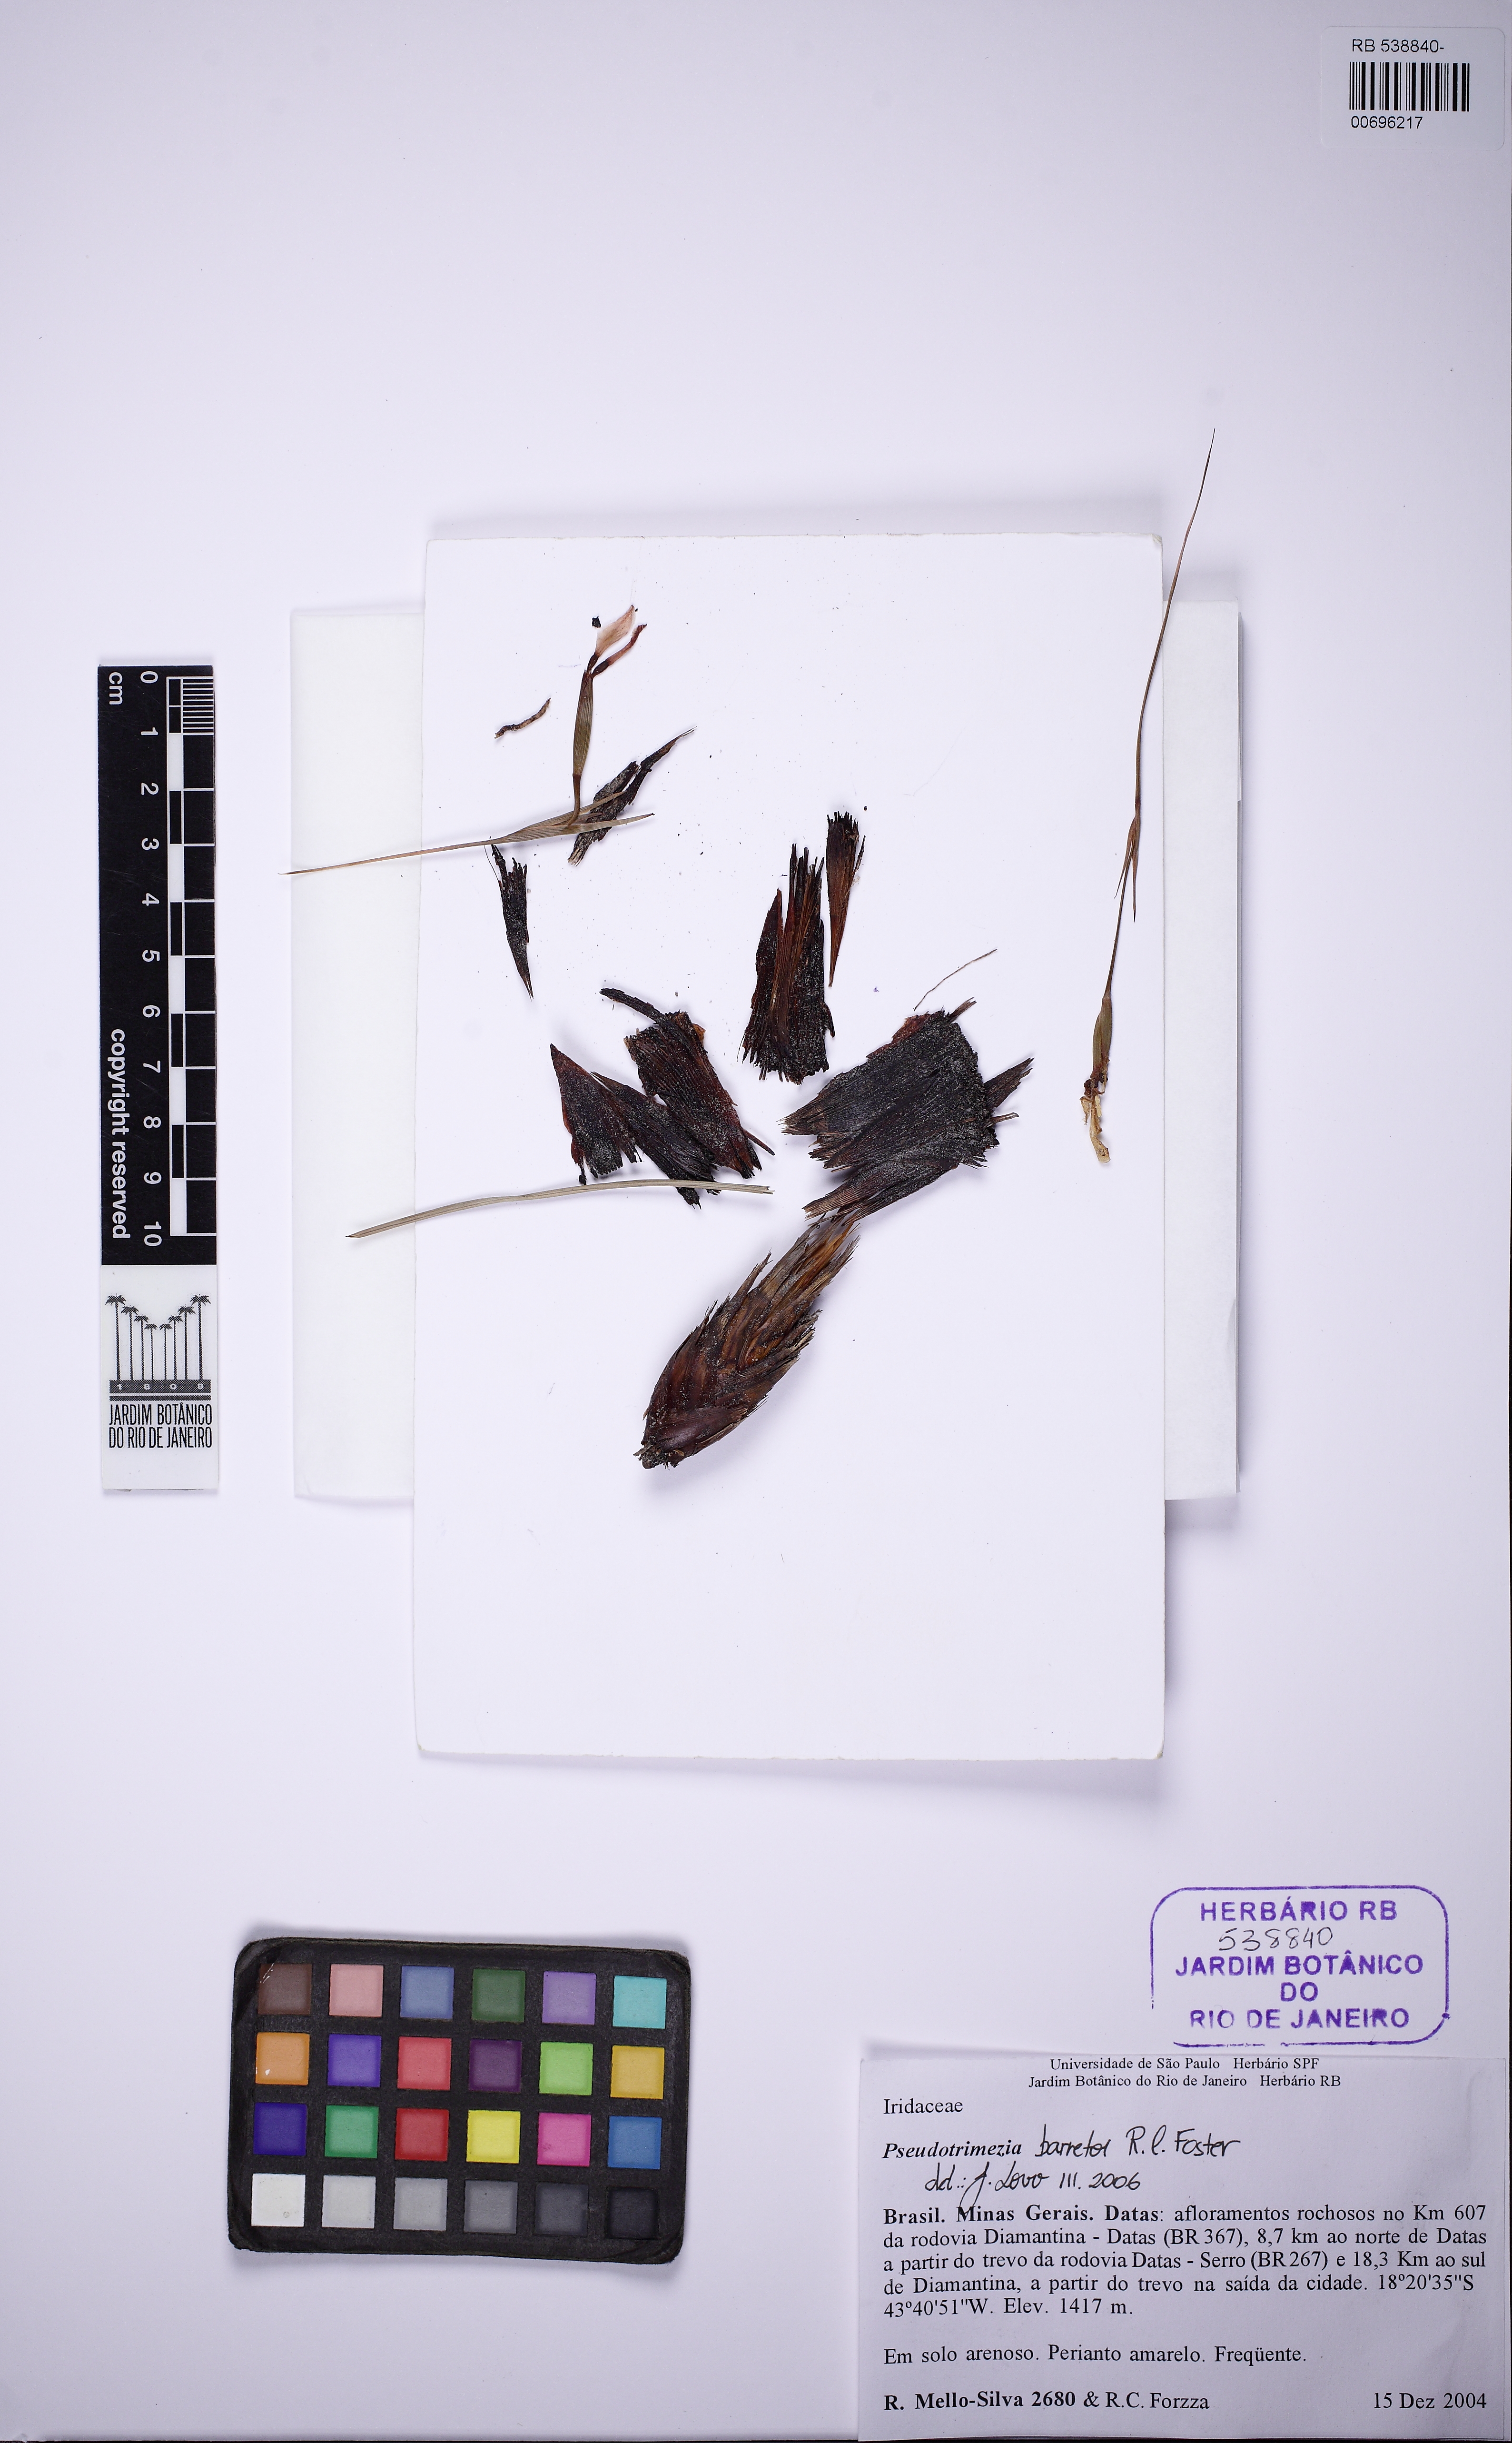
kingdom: Plantae
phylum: Tracheophyta
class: Liliopsida
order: Asparagales
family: Iridaceae
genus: Trimezia
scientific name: Trimezia barretoi
